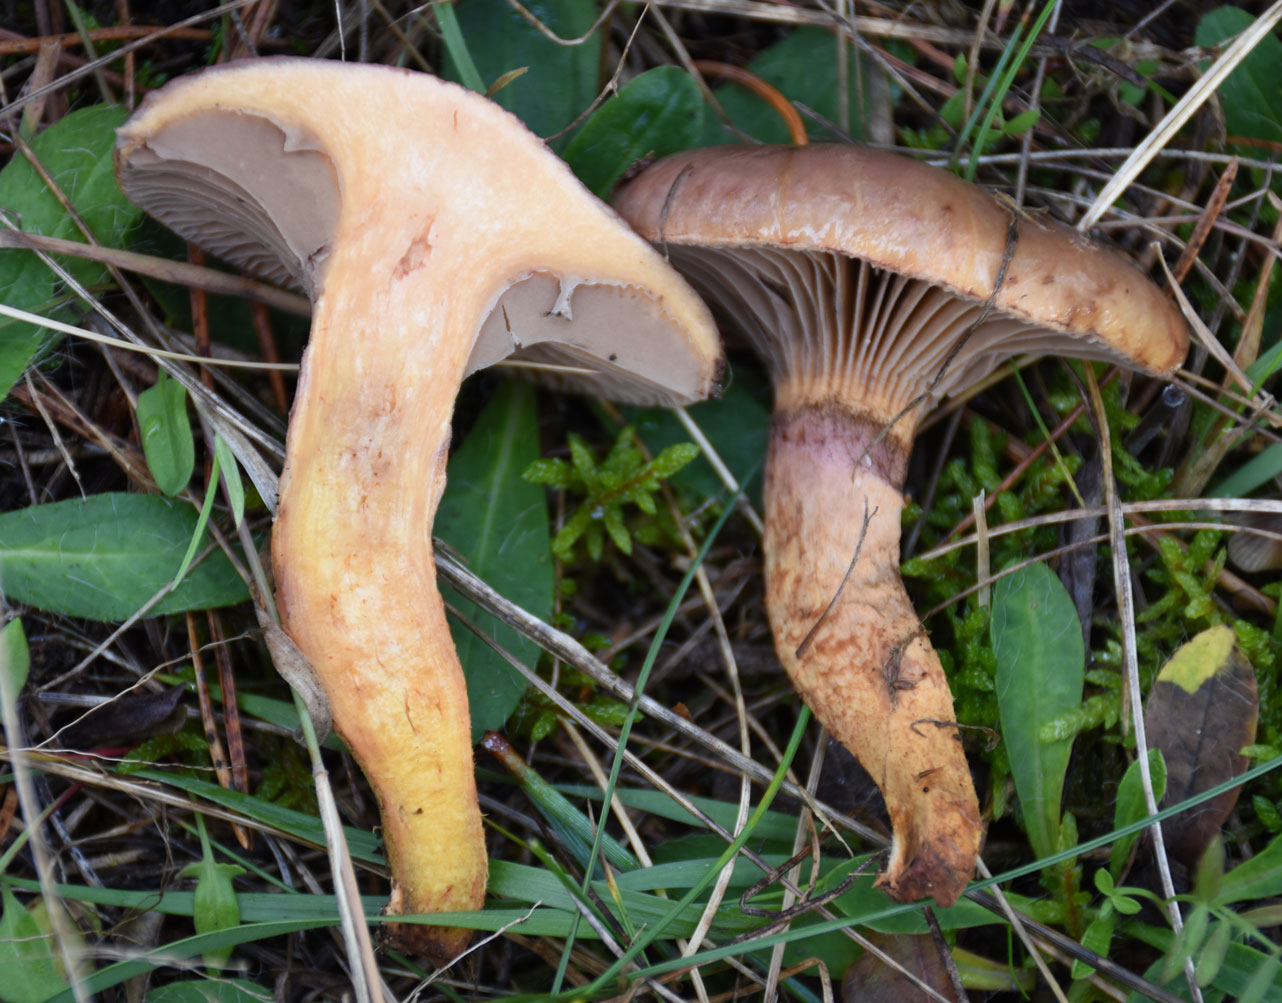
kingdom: Fungi
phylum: Basidiomycota
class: Agaricomycetes
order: Boletales
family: Gomphidiaceae
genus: Chroogomphus
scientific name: Chroogomphus rutilus
